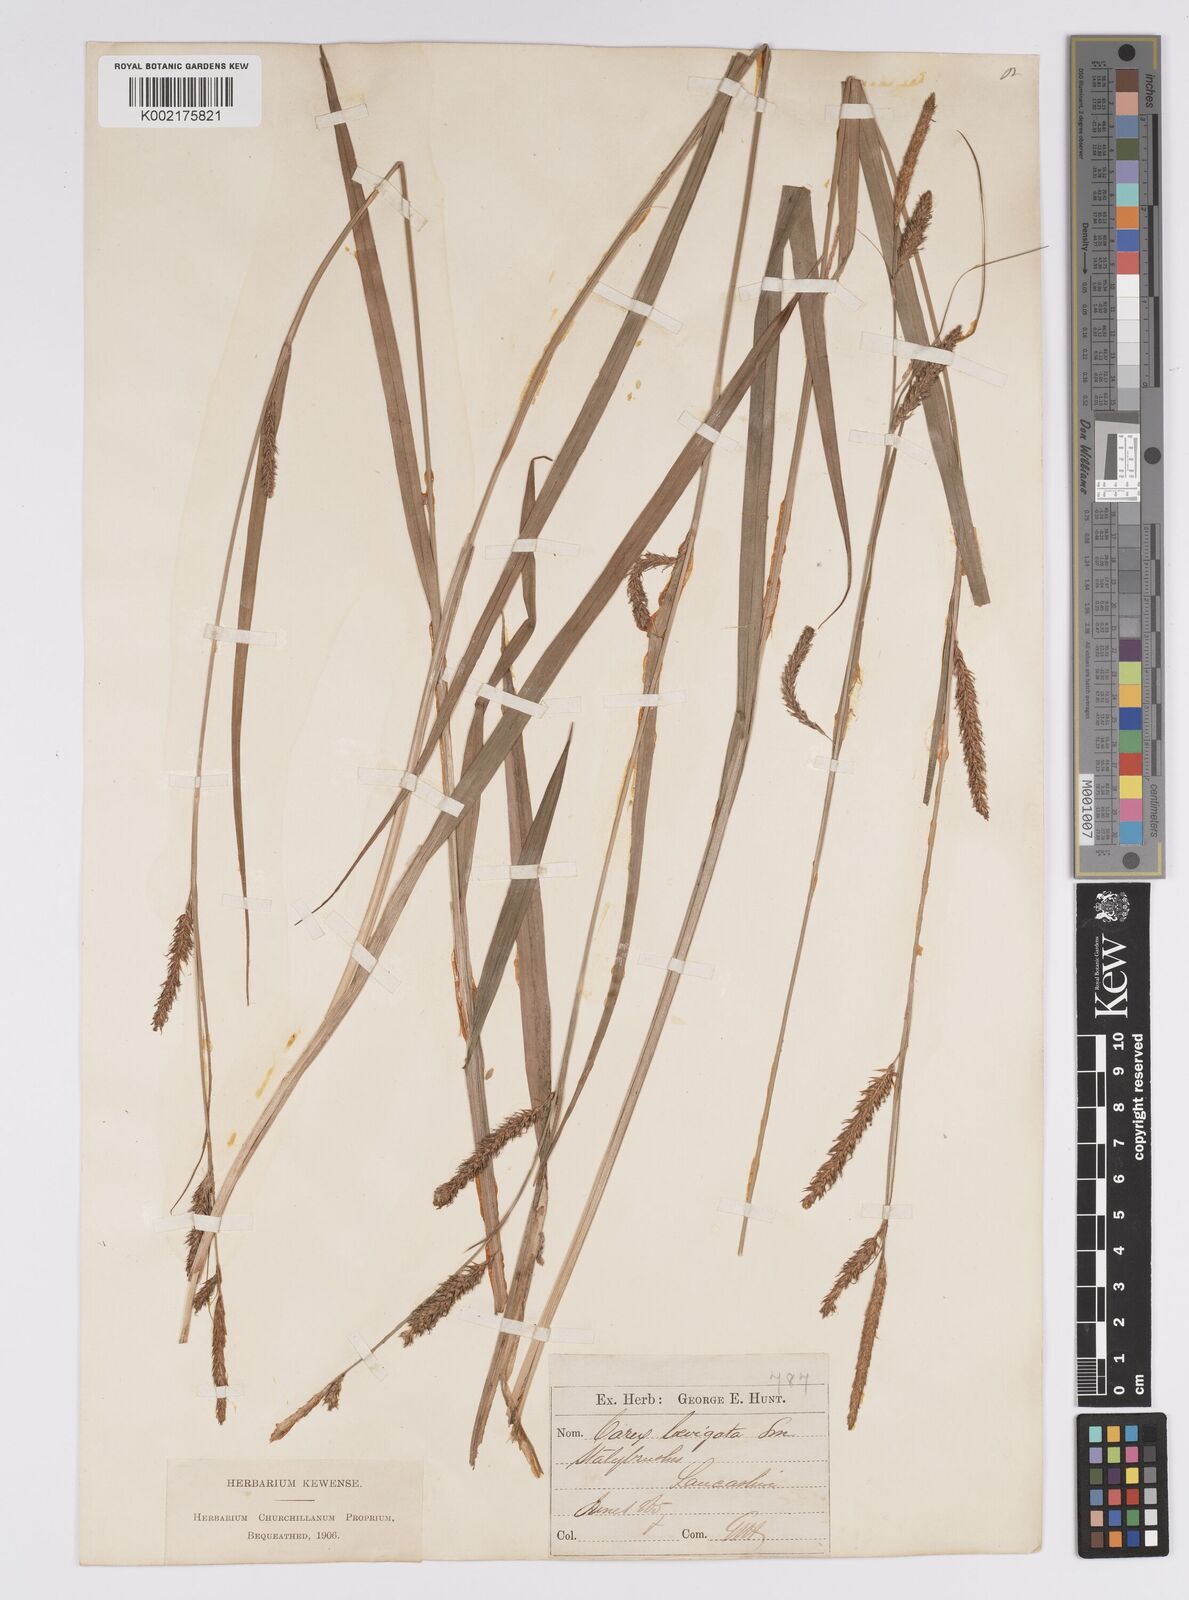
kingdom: Plantae
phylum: Tracheophyta
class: Liliopsida
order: Poales
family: Cyperaceae
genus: Carex
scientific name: Carex laevigata
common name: Smooth-stalked sedge
